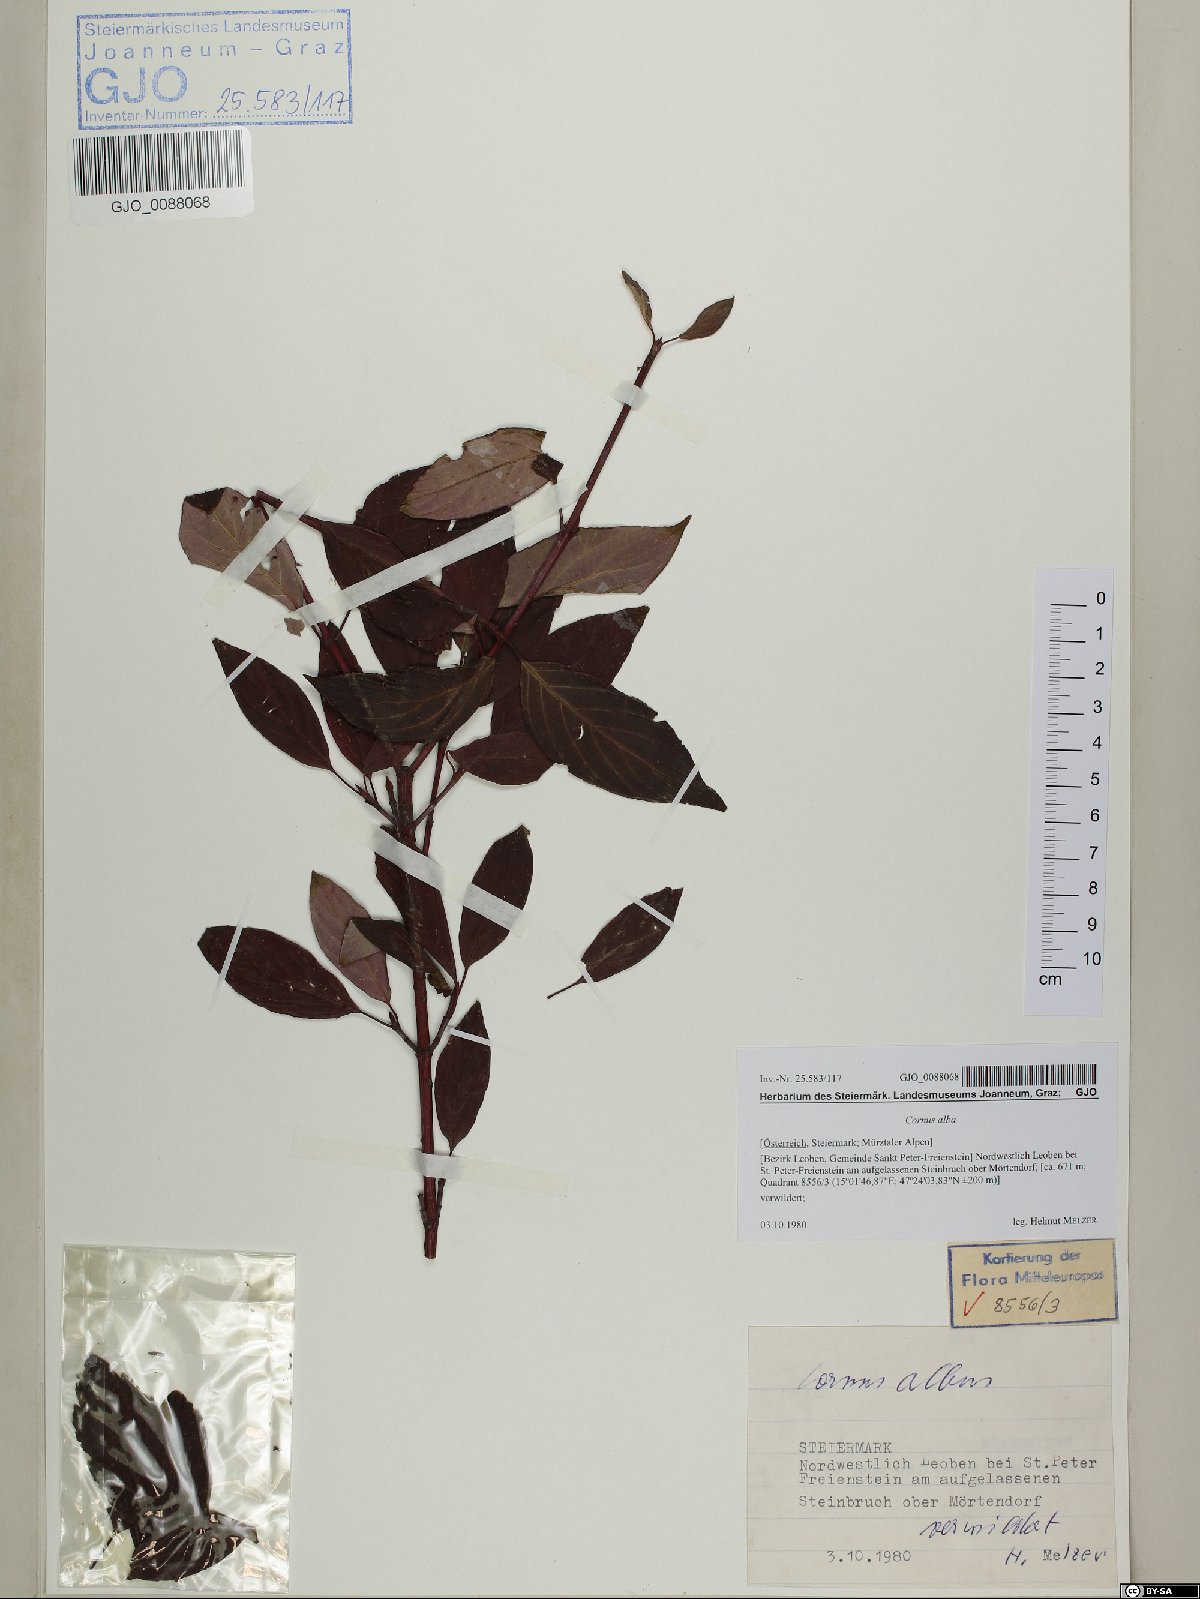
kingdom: Plantae
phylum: Tracheophyta
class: Magnoliopsida
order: Cornales
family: Cornaceae
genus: Cornus
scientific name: Cornus alba
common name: White dogwood
